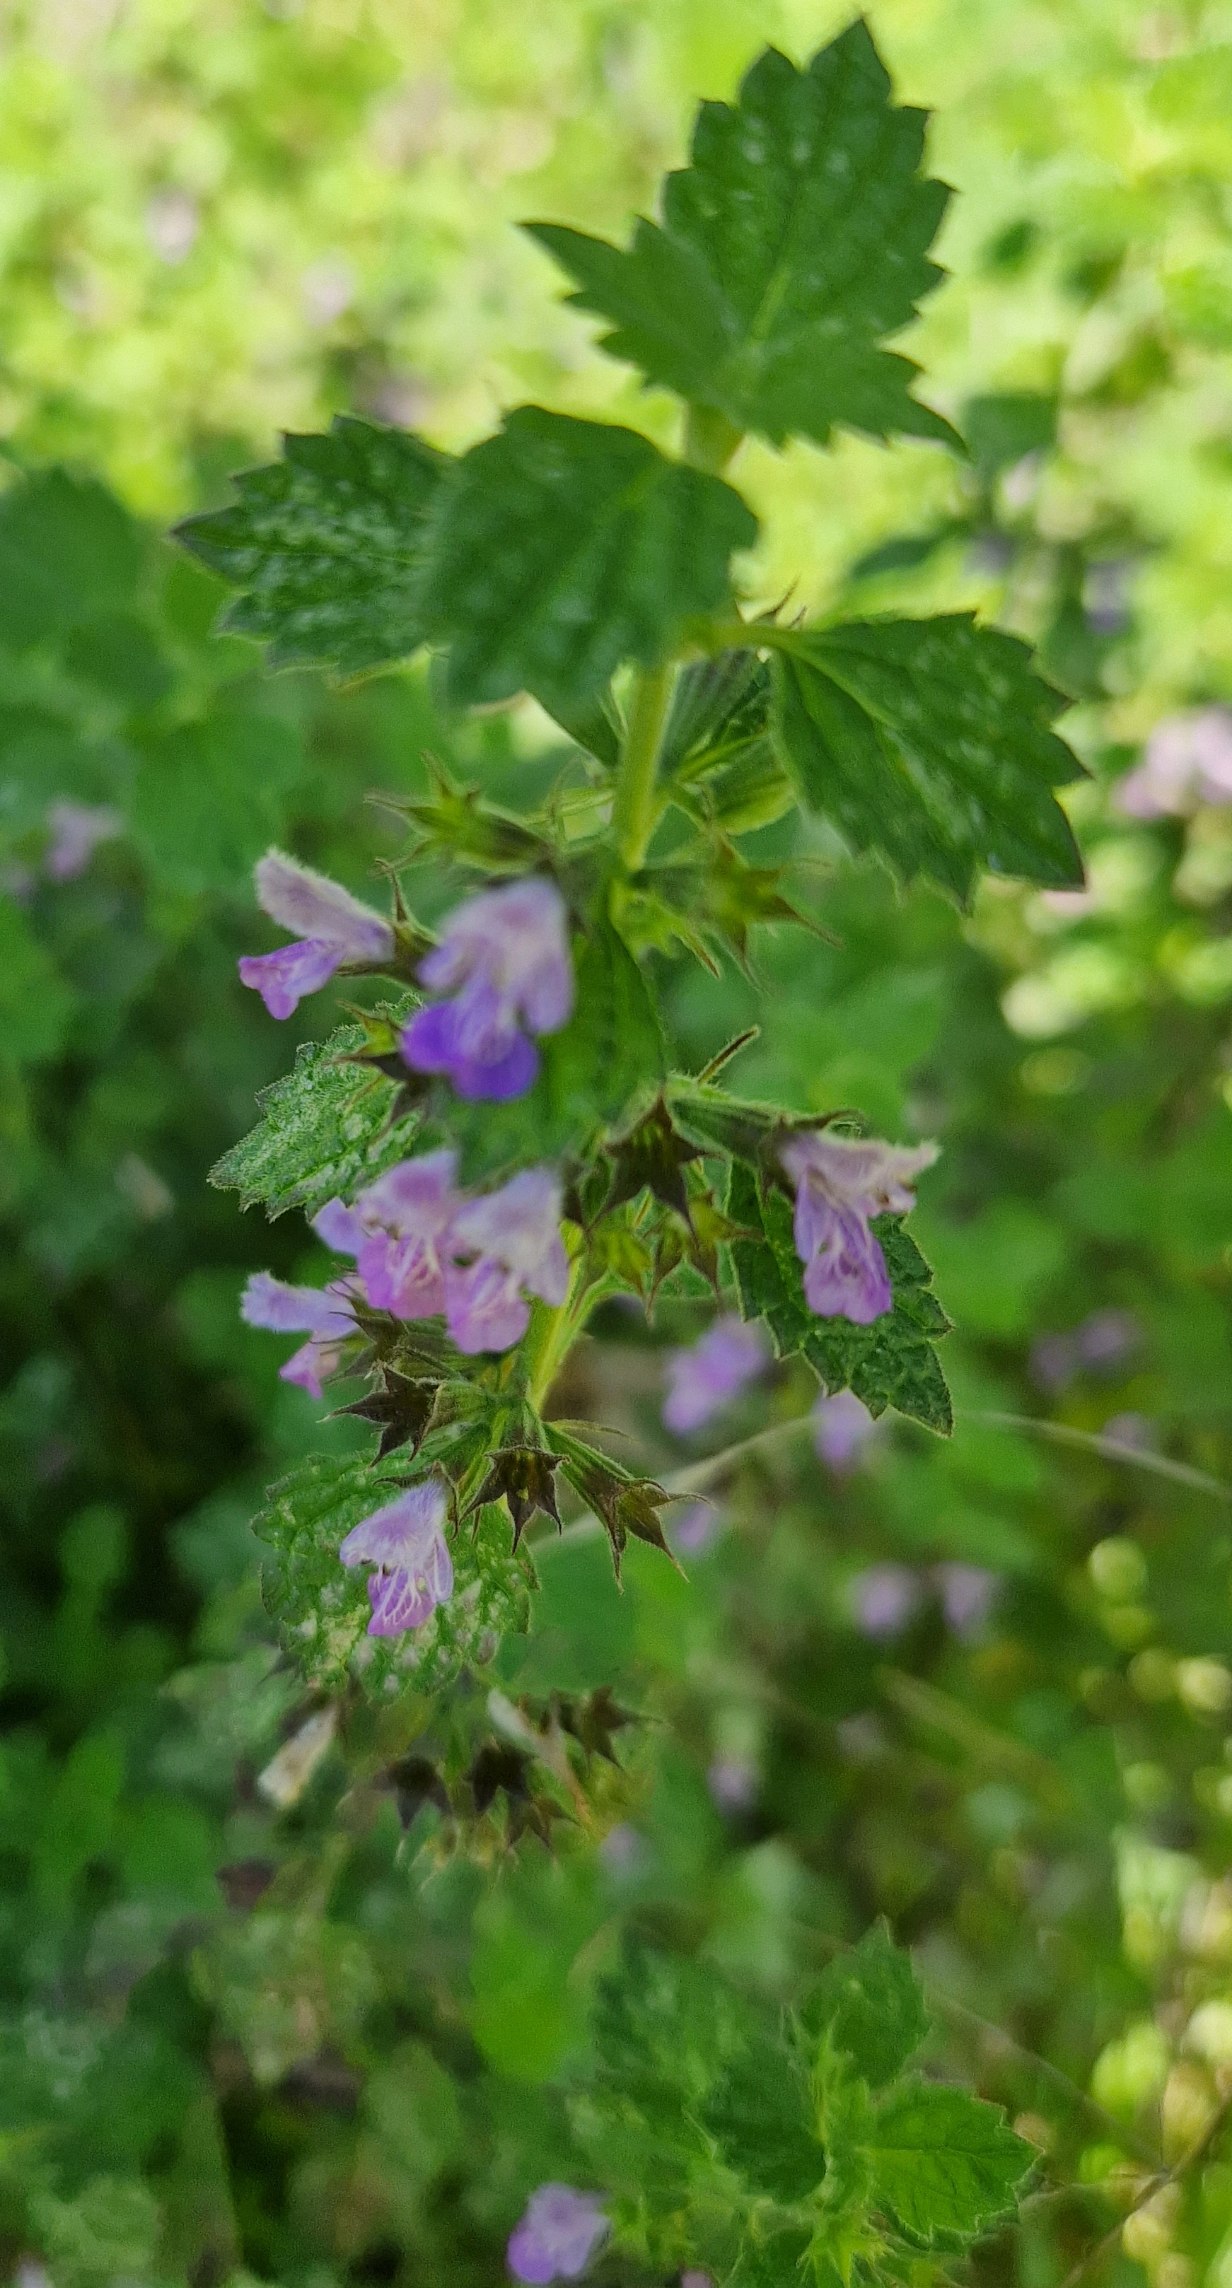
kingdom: Plantae
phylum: Tracheophyta
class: Magnoliopsida
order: Lamiales
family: Lamiaceae
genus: Ballota
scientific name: Ballota nigra
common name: Tandbæger
